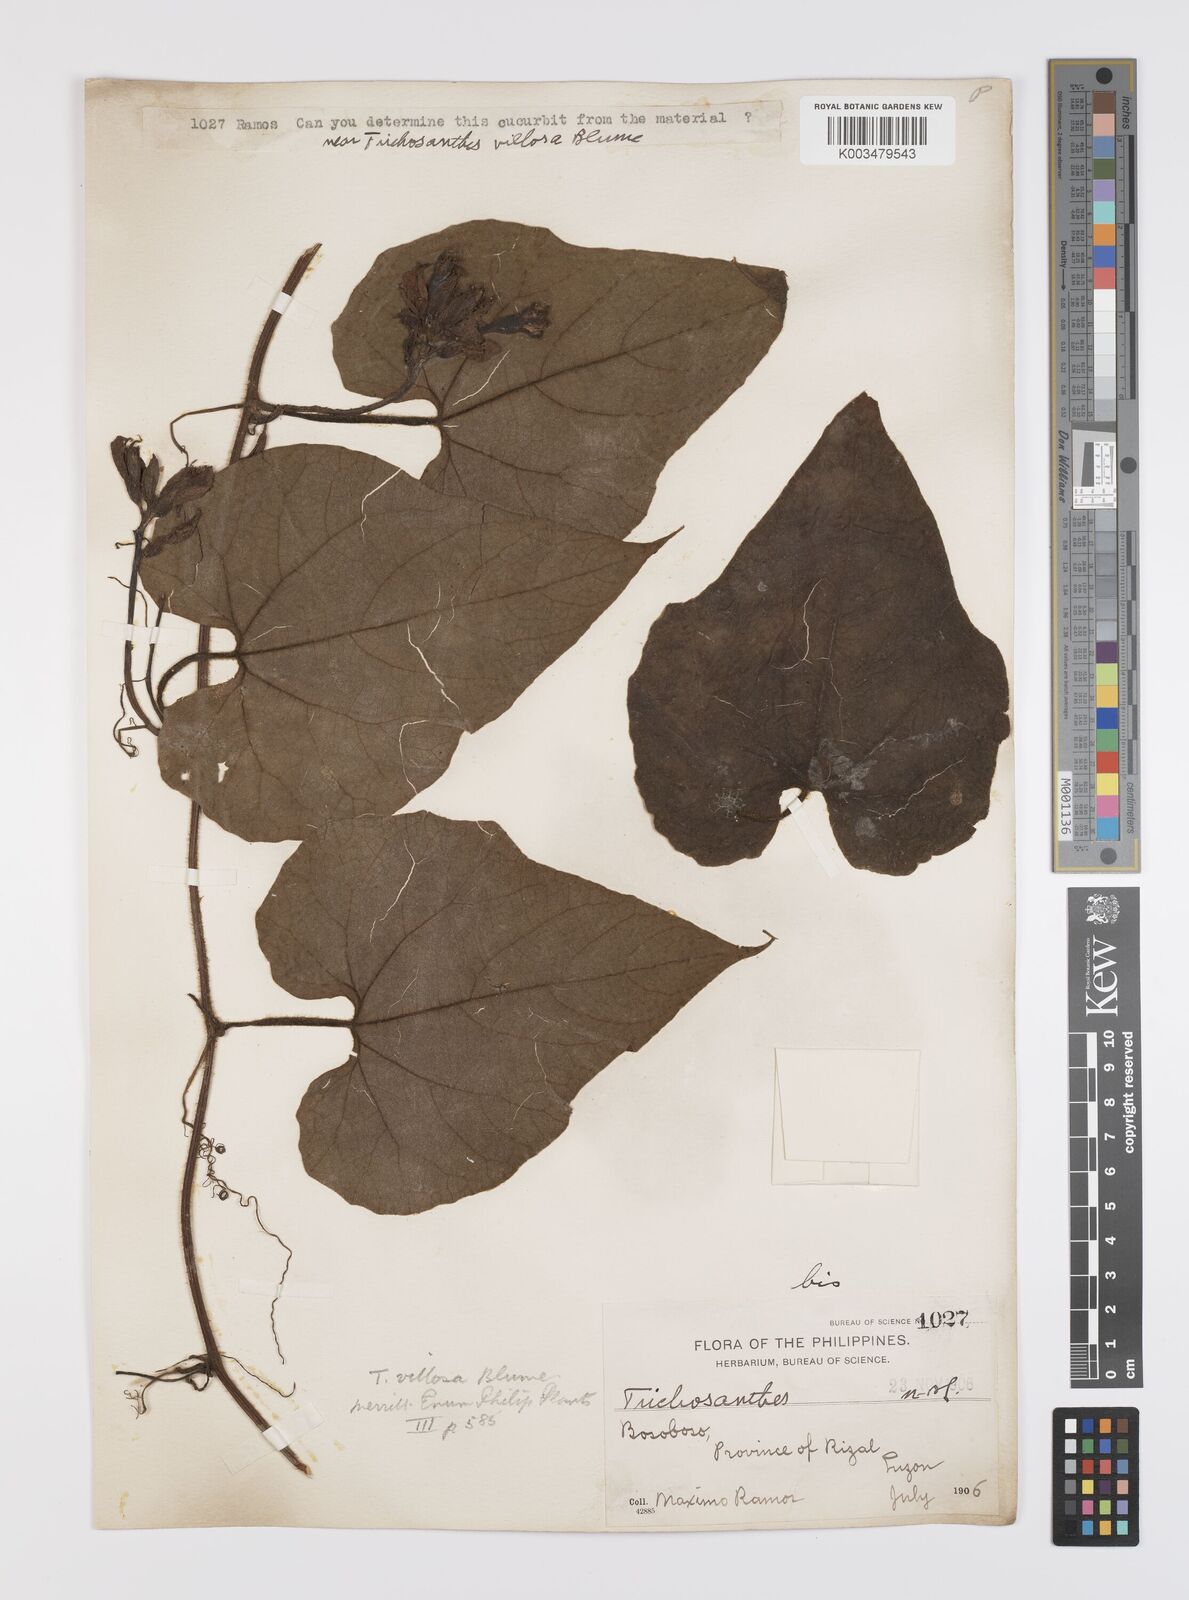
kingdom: Plantae
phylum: Tracheophyta
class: Magnoliopsida
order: Cucurbitales
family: Cucurbitaceae
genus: Trichosanthes
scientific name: Trichosanthes villosa
